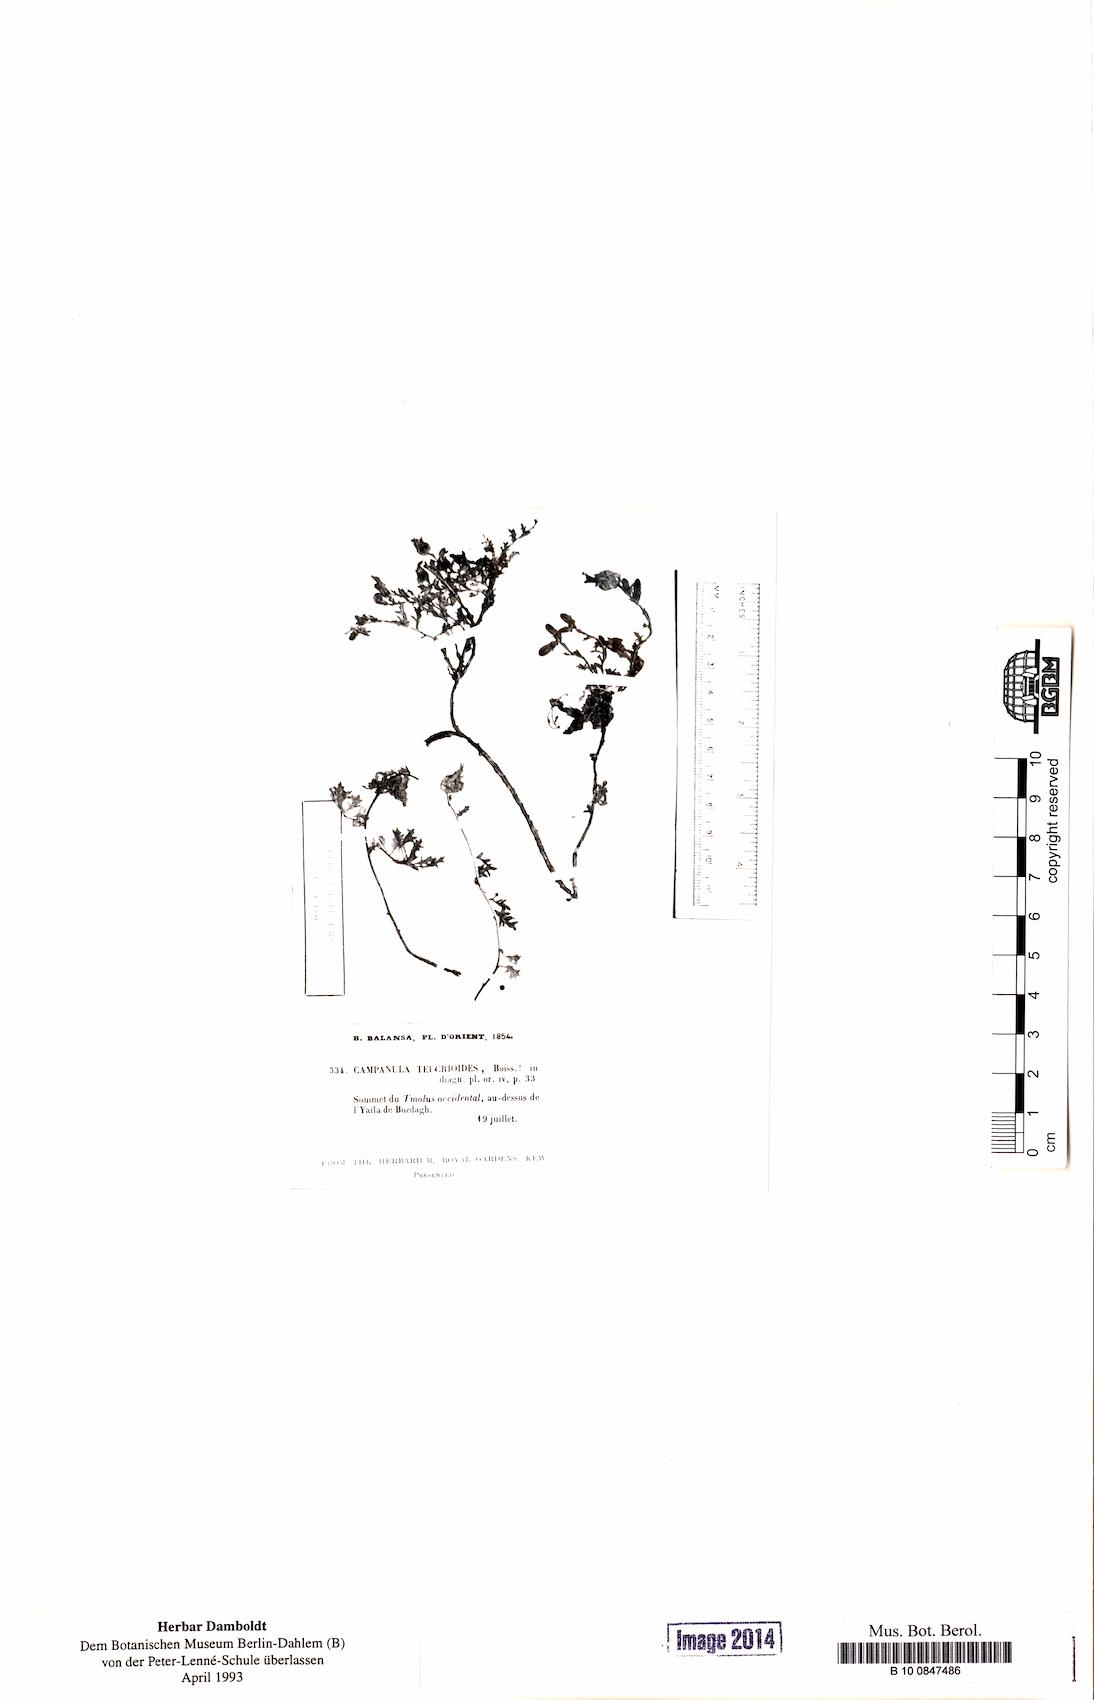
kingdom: Plantae
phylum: Tracheophyta
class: Magnoliopsida
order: Asterales
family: Campanulaceae
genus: Campanula
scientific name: Campanula teucrioides
